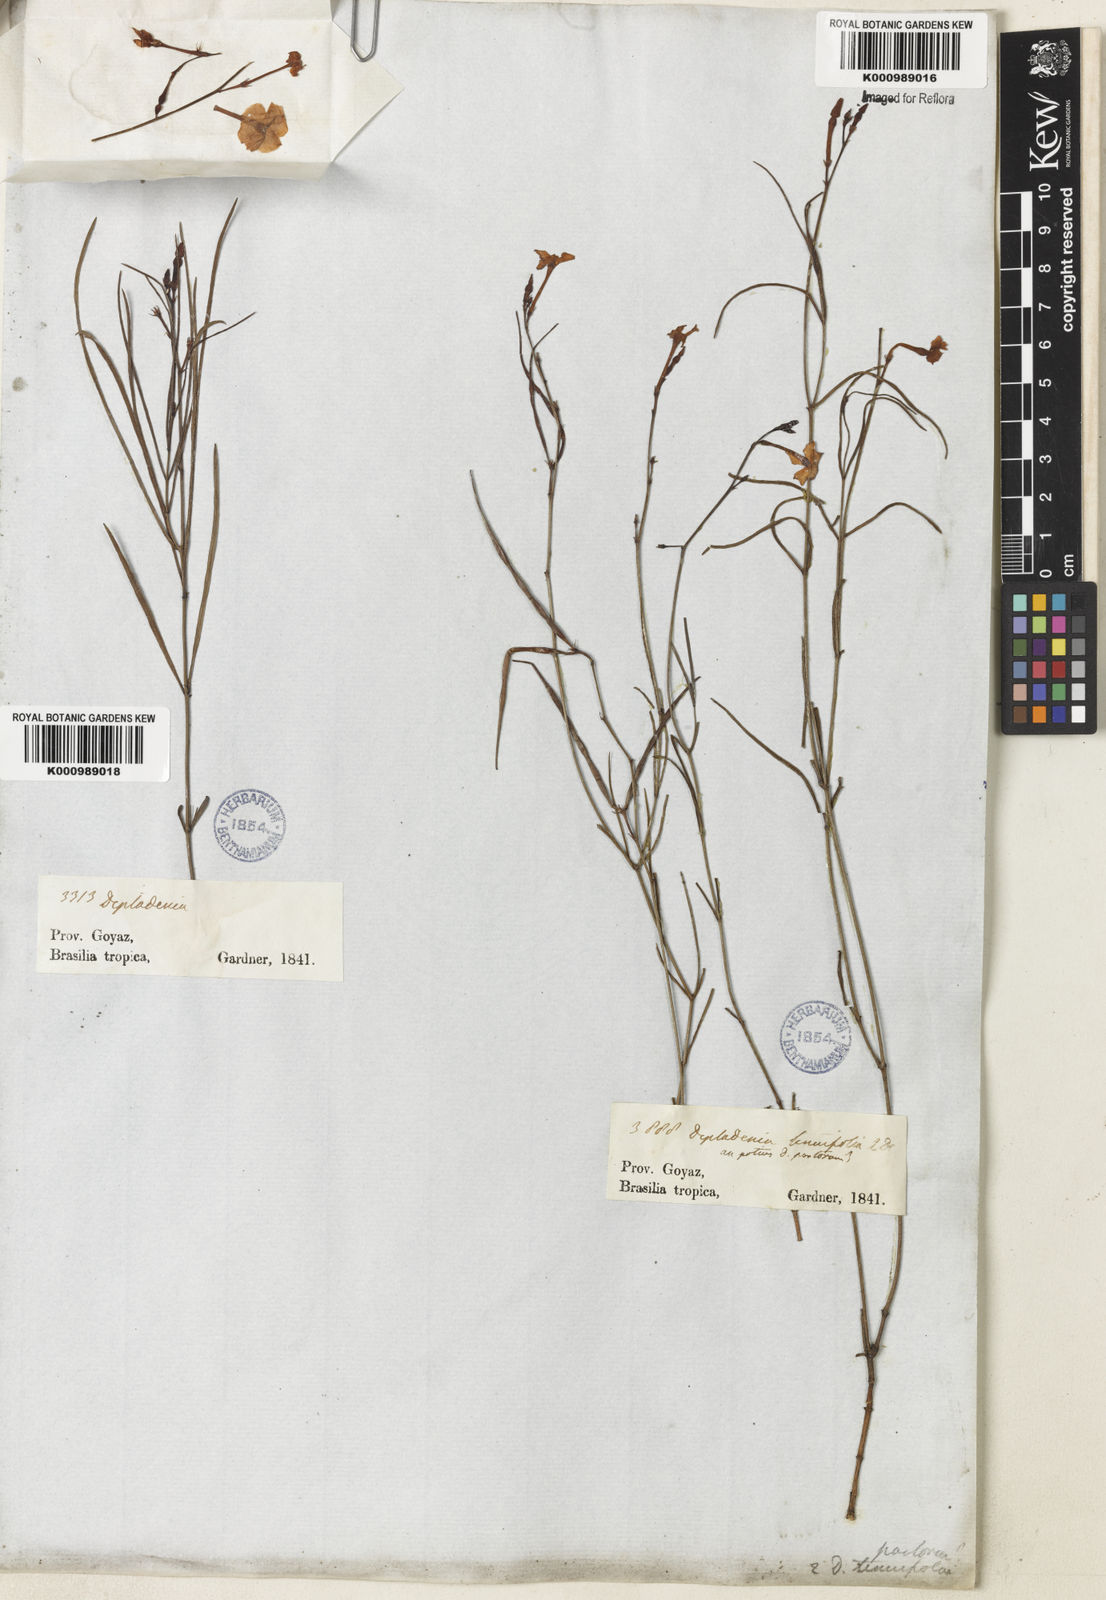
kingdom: Plantae
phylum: Tracheophyta
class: Magnoliopsida
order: Gentianales
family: Apocynaceae
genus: Mandevilla
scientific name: Mandevilla tenuifolia
